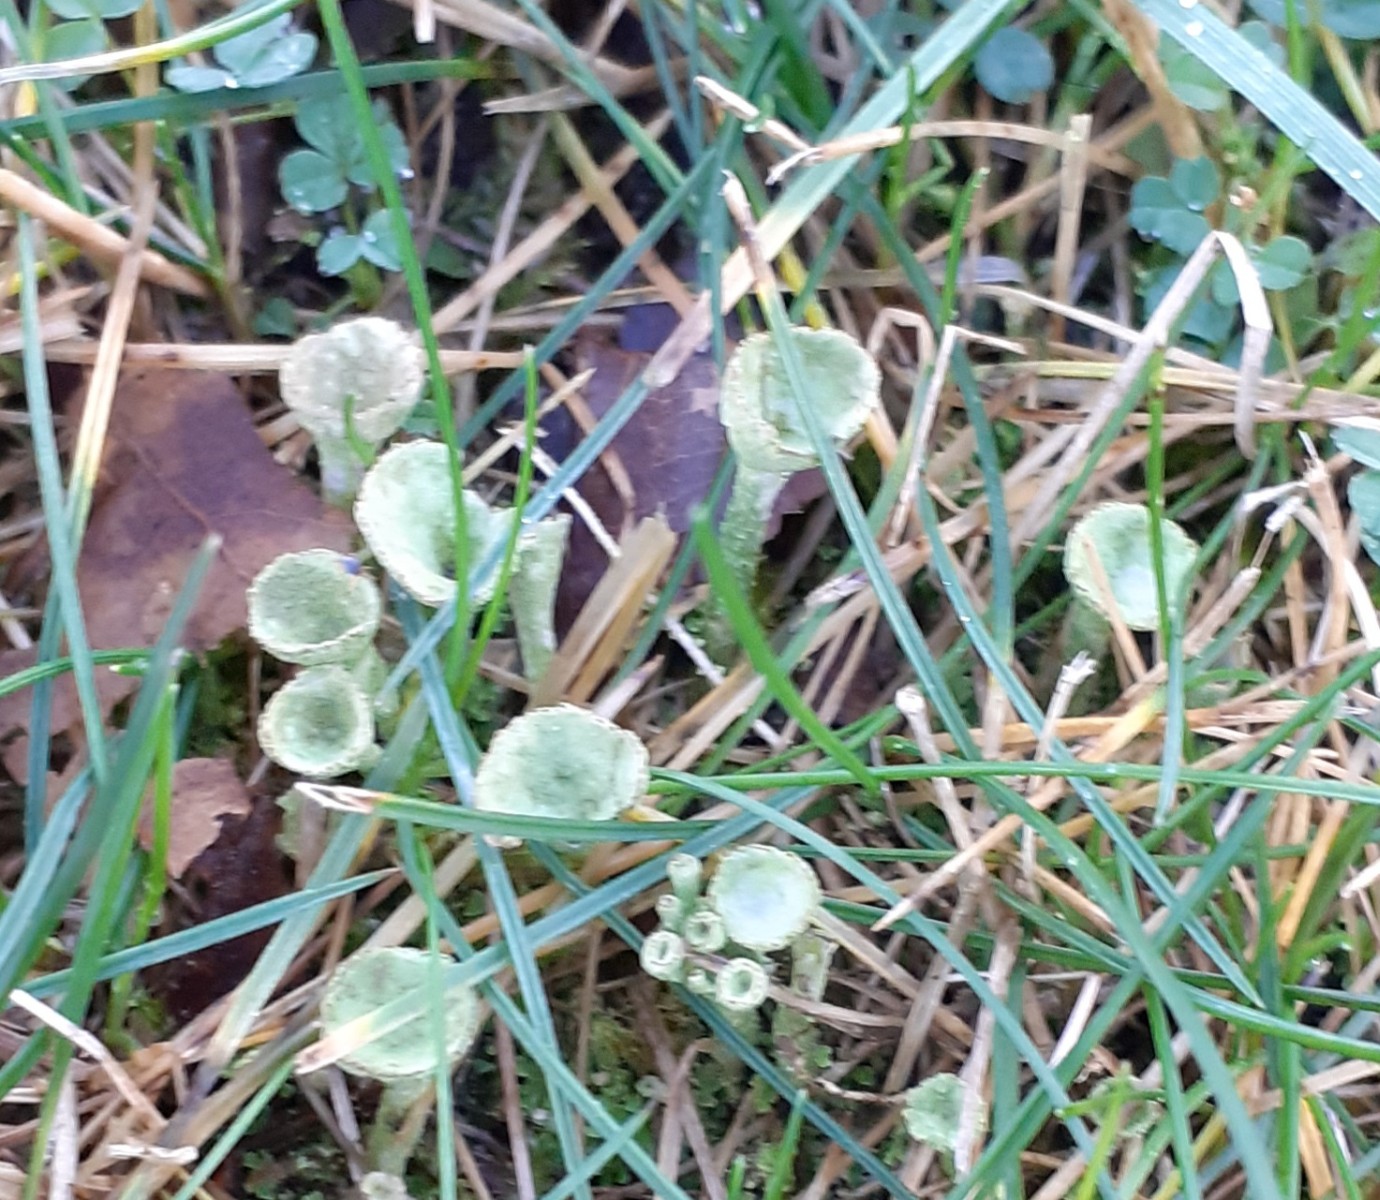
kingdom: Fungi
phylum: Ascomycota
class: Lecanoromycetes
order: Lecanorales
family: Cladoniaceae
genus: Cladonia
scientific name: Cladonia
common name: brungrøn bægerlav
